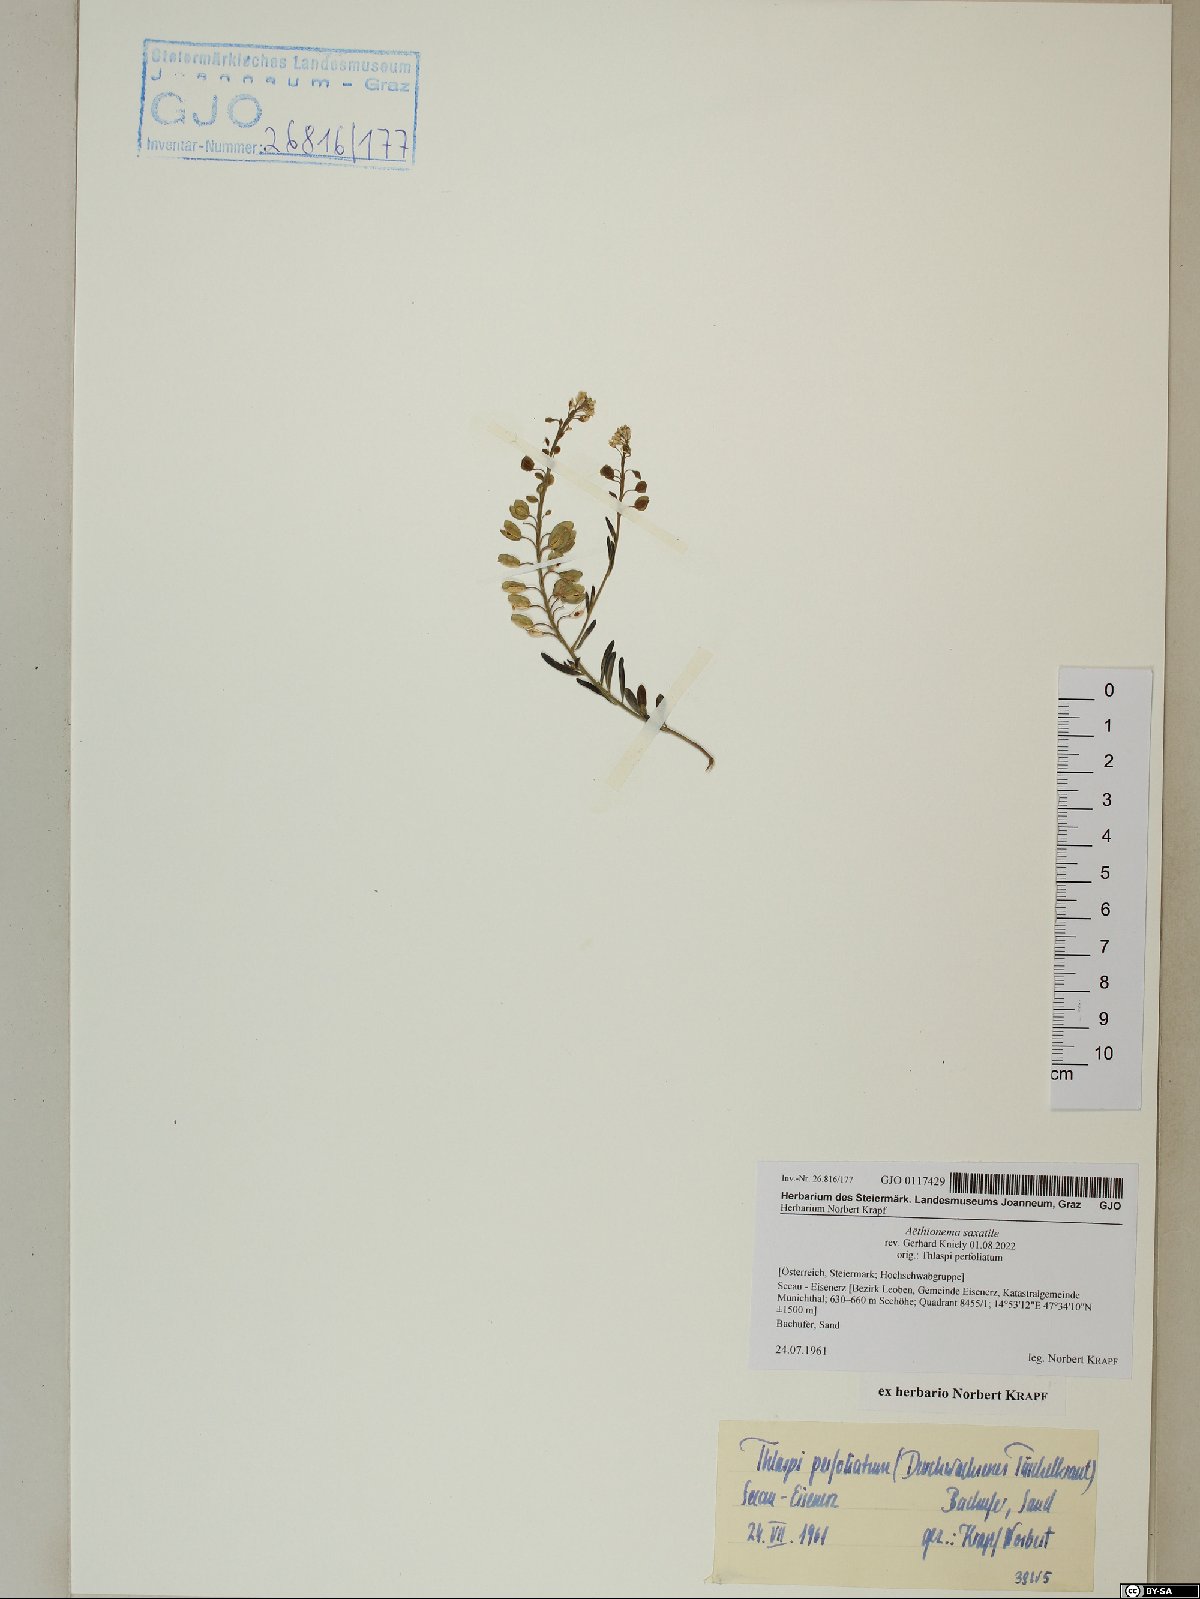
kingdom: Plantae
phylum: Tracheophyta
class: Magnoliopsida
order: Brassicales
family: Brassicaceae
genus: Aethionema
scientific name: Aethionema saxatile
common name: Burnt candytuft
